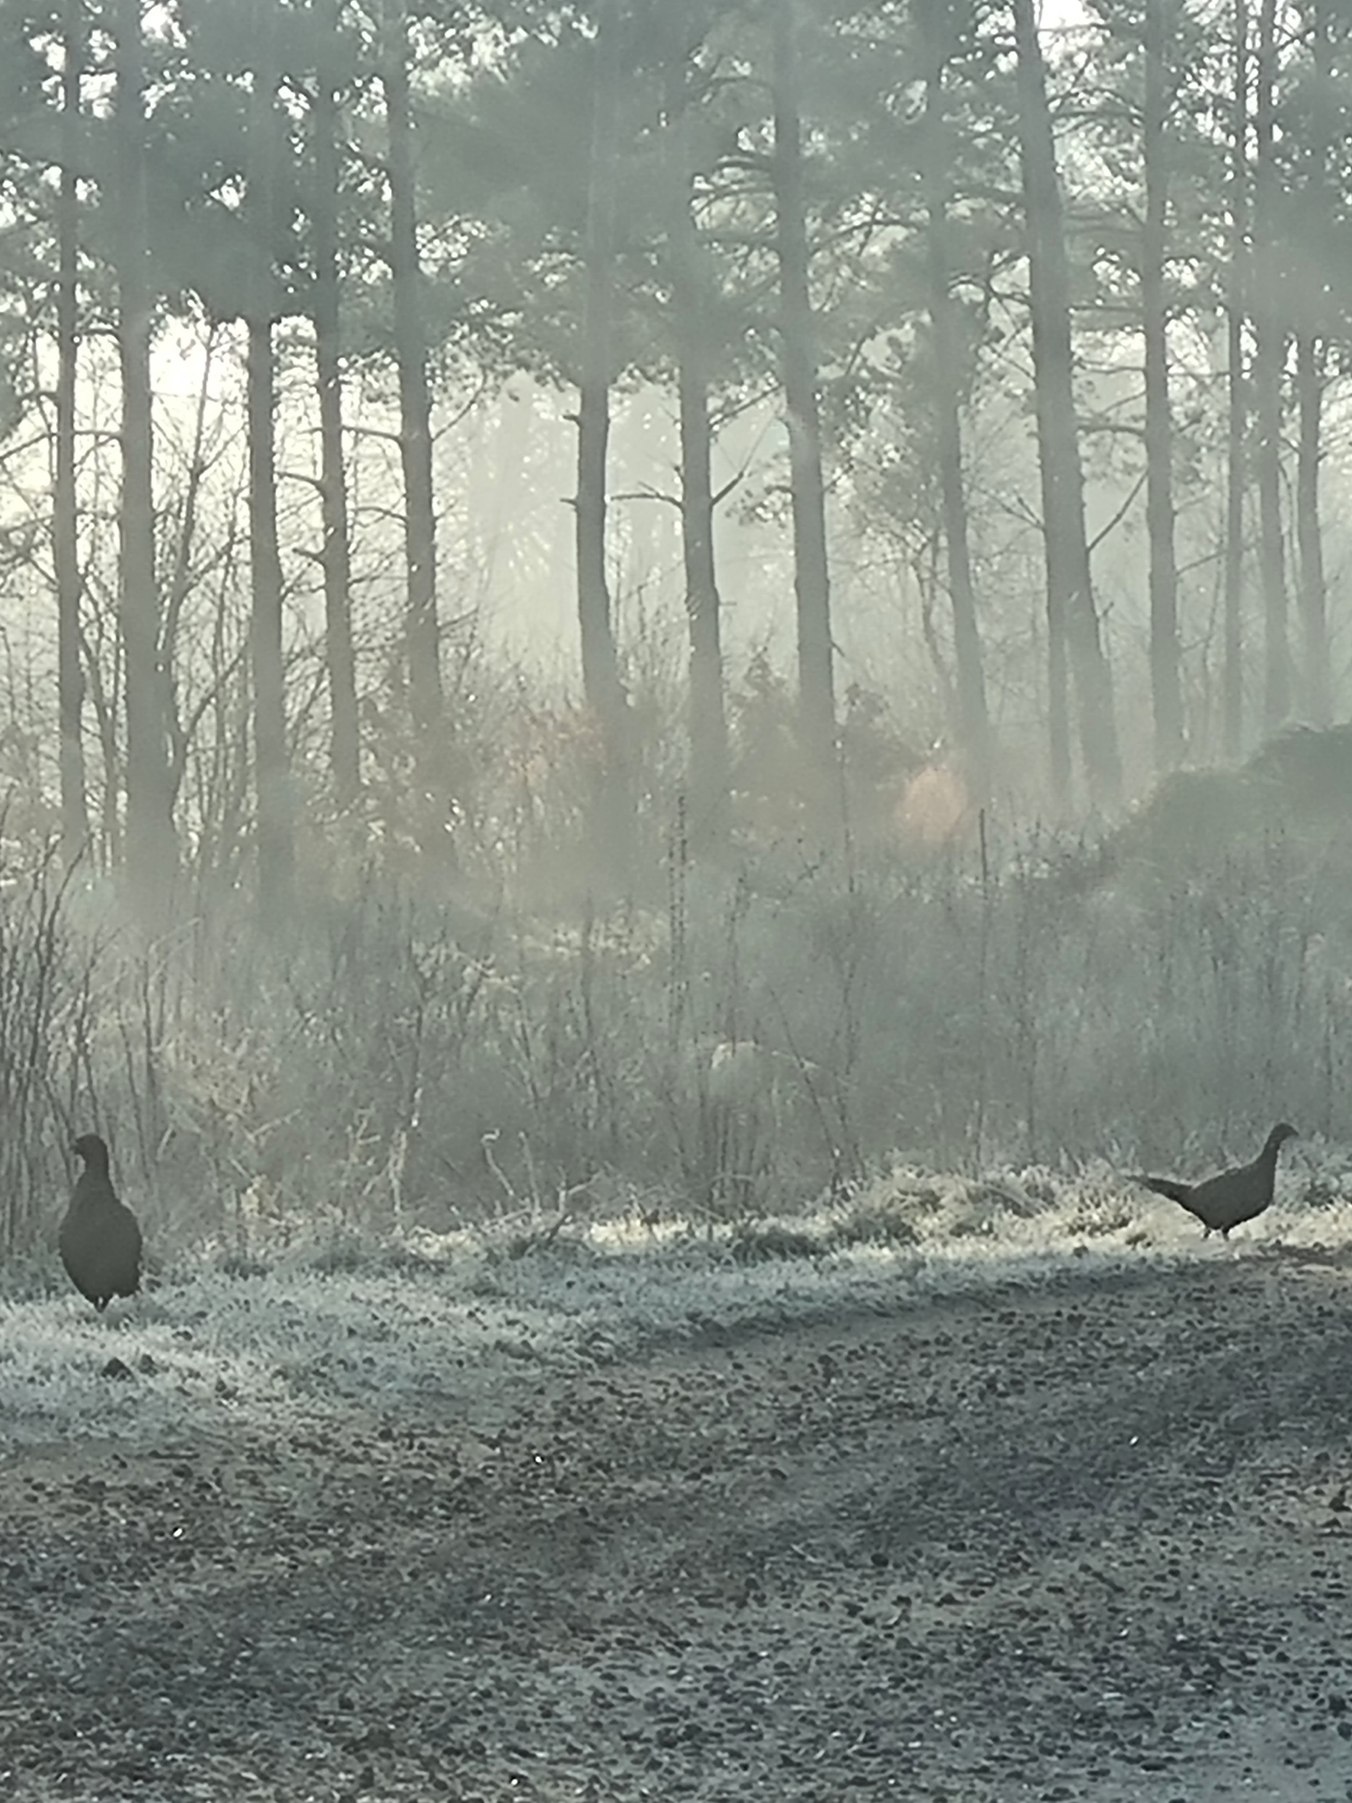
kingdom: Animalia
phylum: Chordata
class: Aves
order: Galliformes
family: Phasianidae
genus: Phasianus
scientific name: Phasianus colchicus
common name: Fasan
